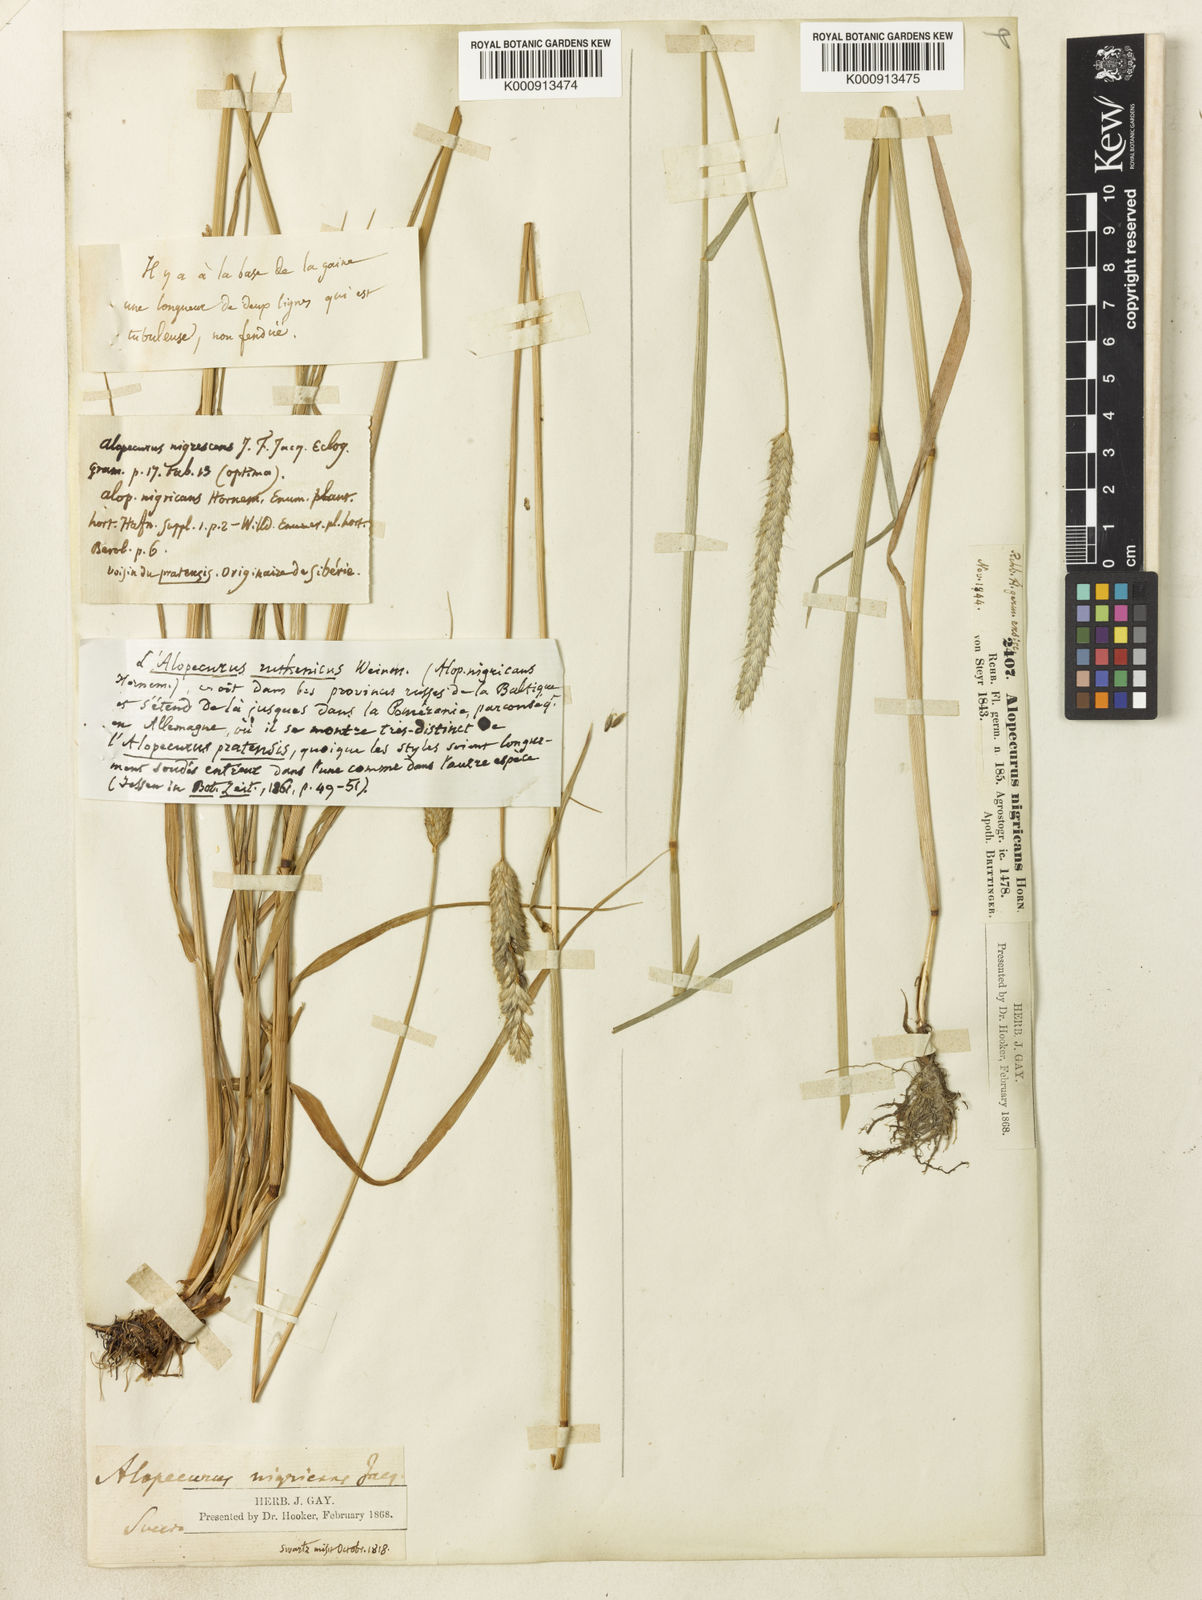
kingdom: Plantae
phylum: Tracheophyta
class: Liliopsida
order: Poales
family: Poaceae
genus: Alopecurus
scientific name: Alopecurus arundinaceus
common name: Creeping meadow foxtail
